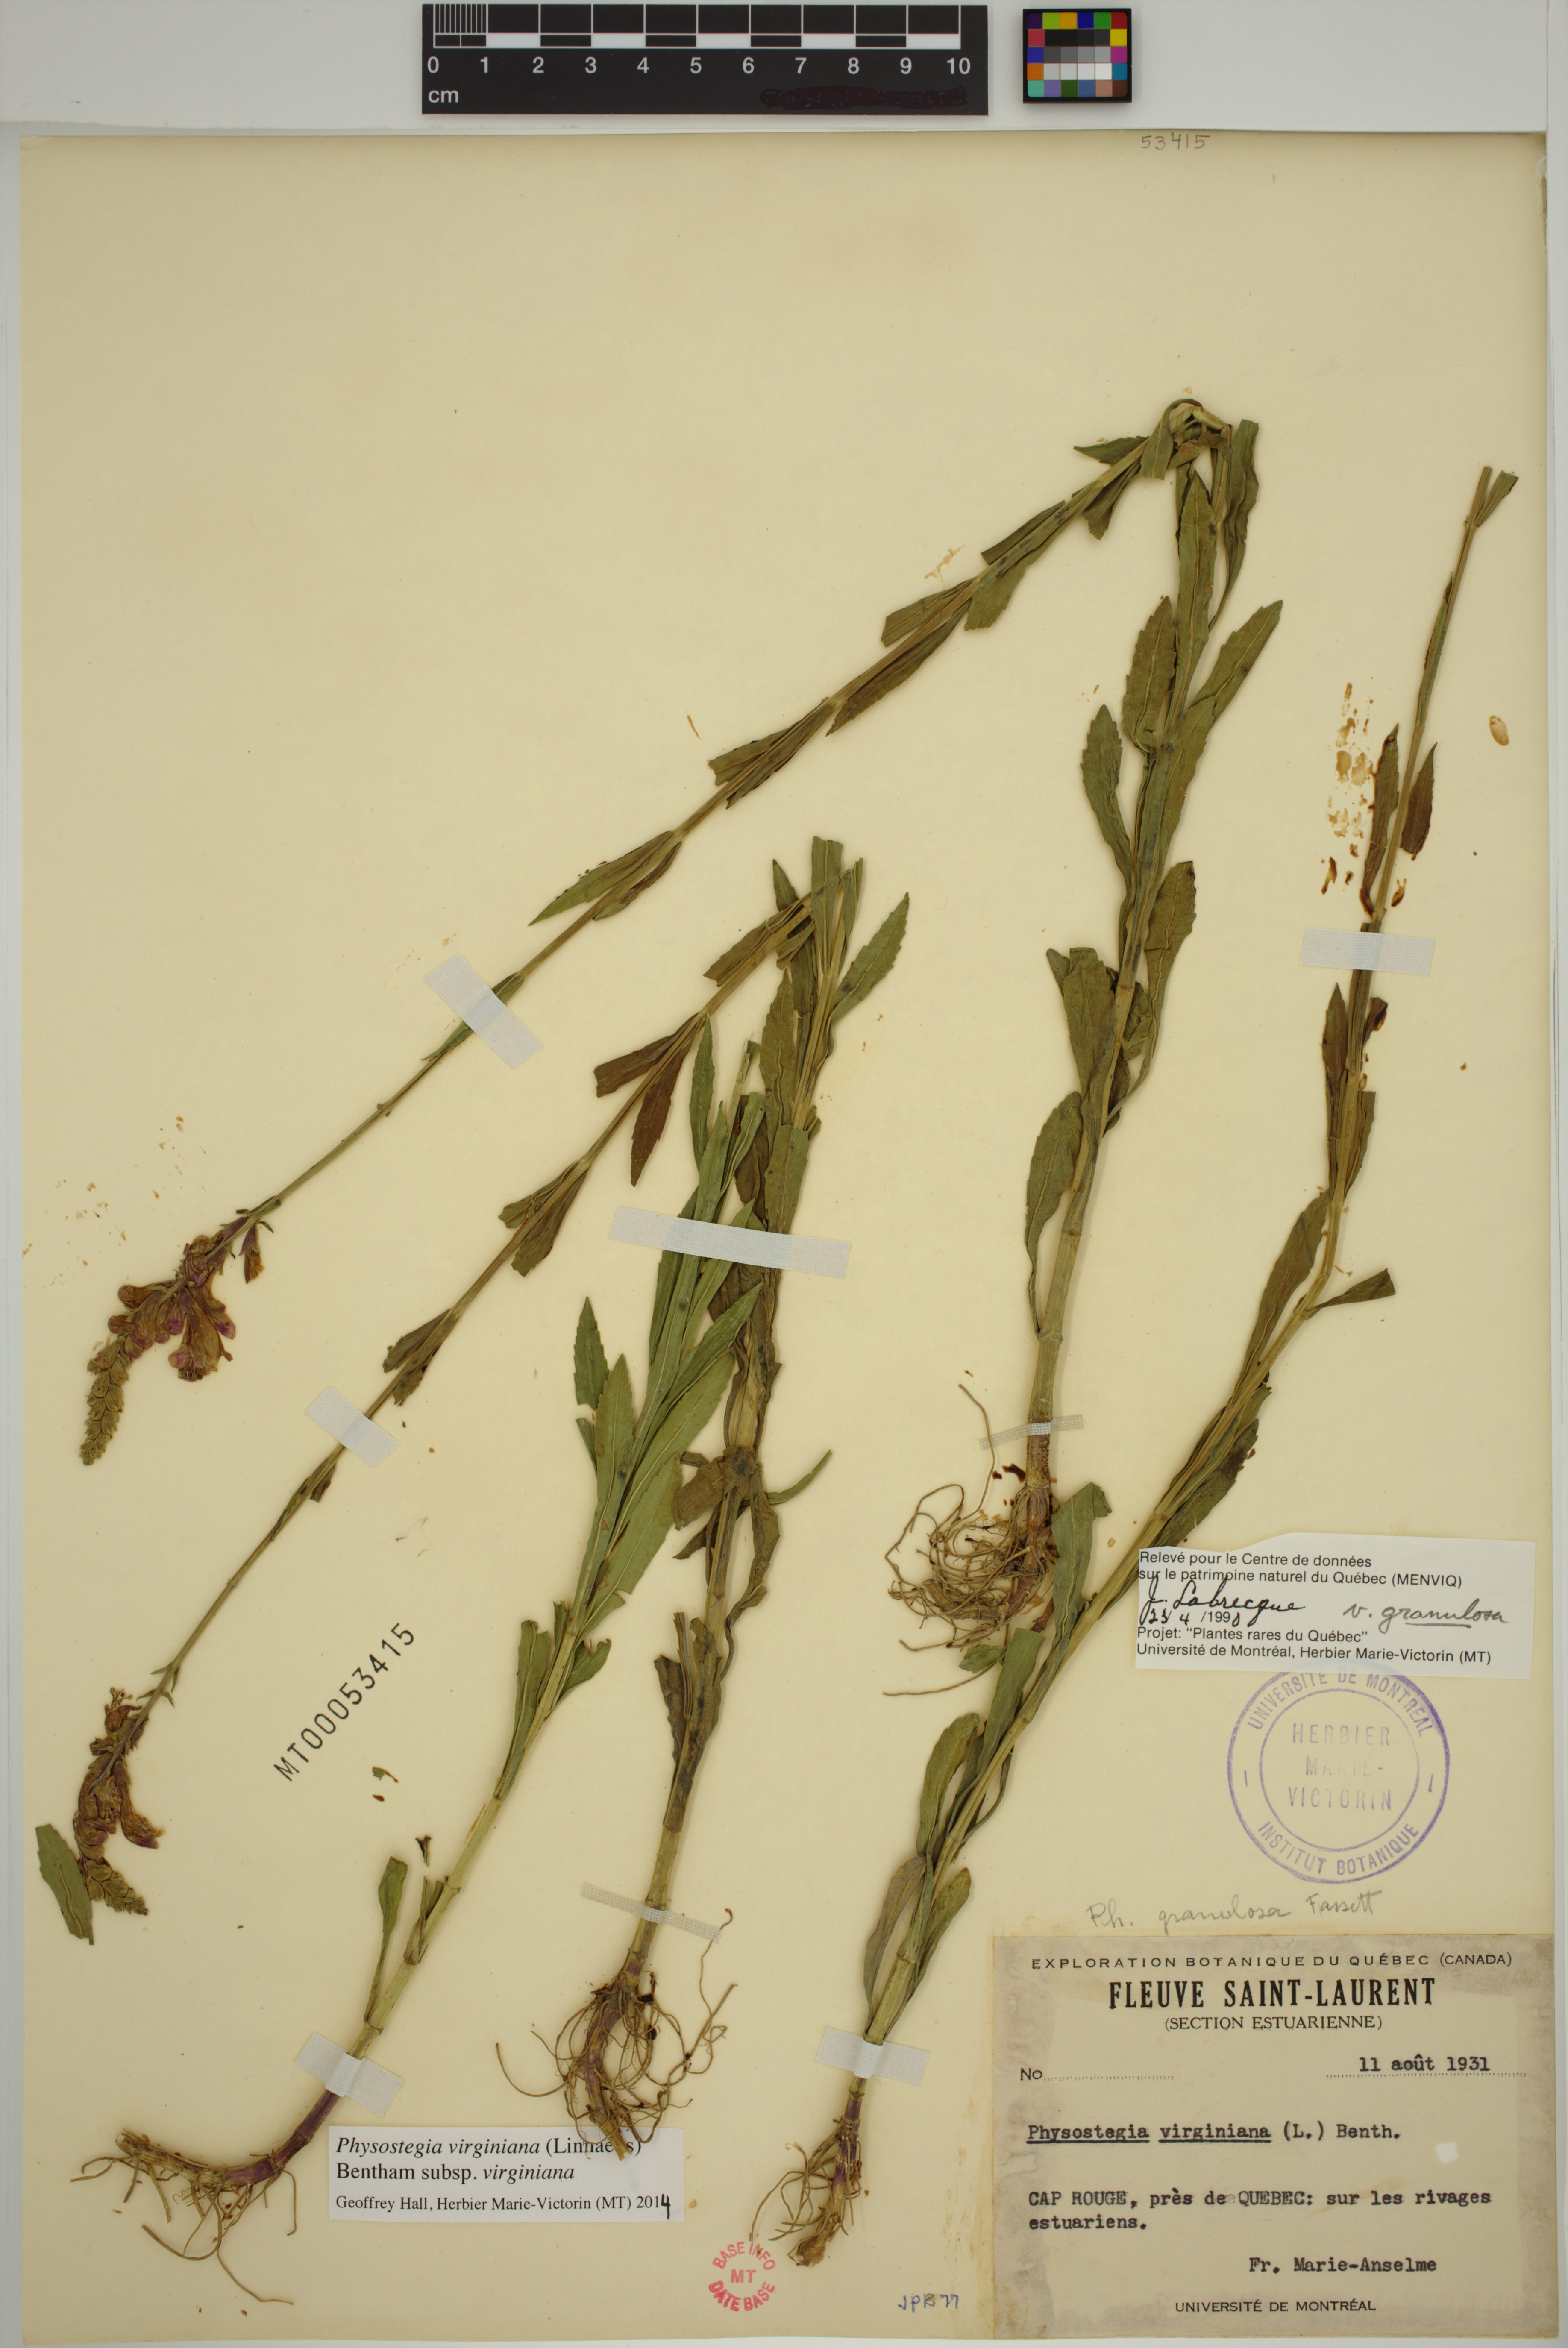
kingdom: Plantae
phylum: Tracheophyta
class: Magnoliopsida
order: Lamiales
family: Lamiaceae
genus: Physostegia
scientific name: Physostegia virginiana
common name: Obedient-plant
